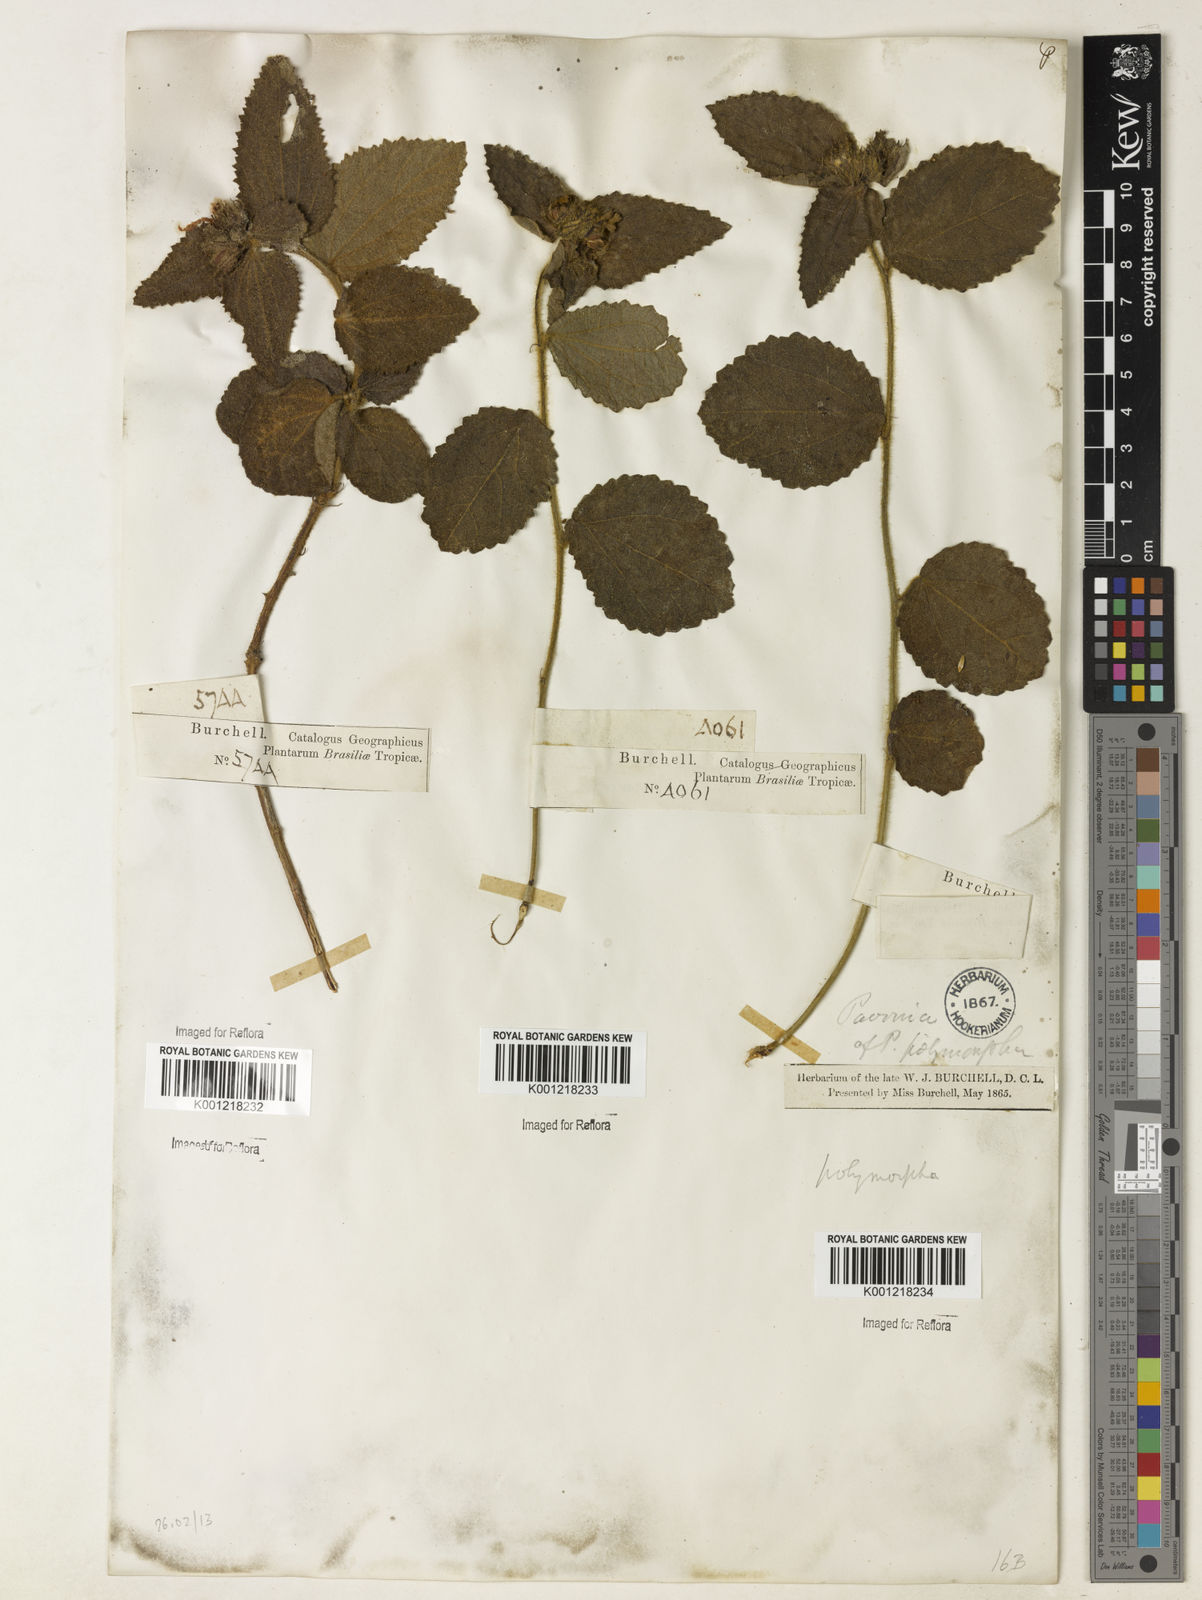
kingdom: Plantae
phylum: Tracheophyta
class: Magnoliopsida
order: Malvales
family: Malvaceae
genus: Peltaea
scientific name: Peltaea
